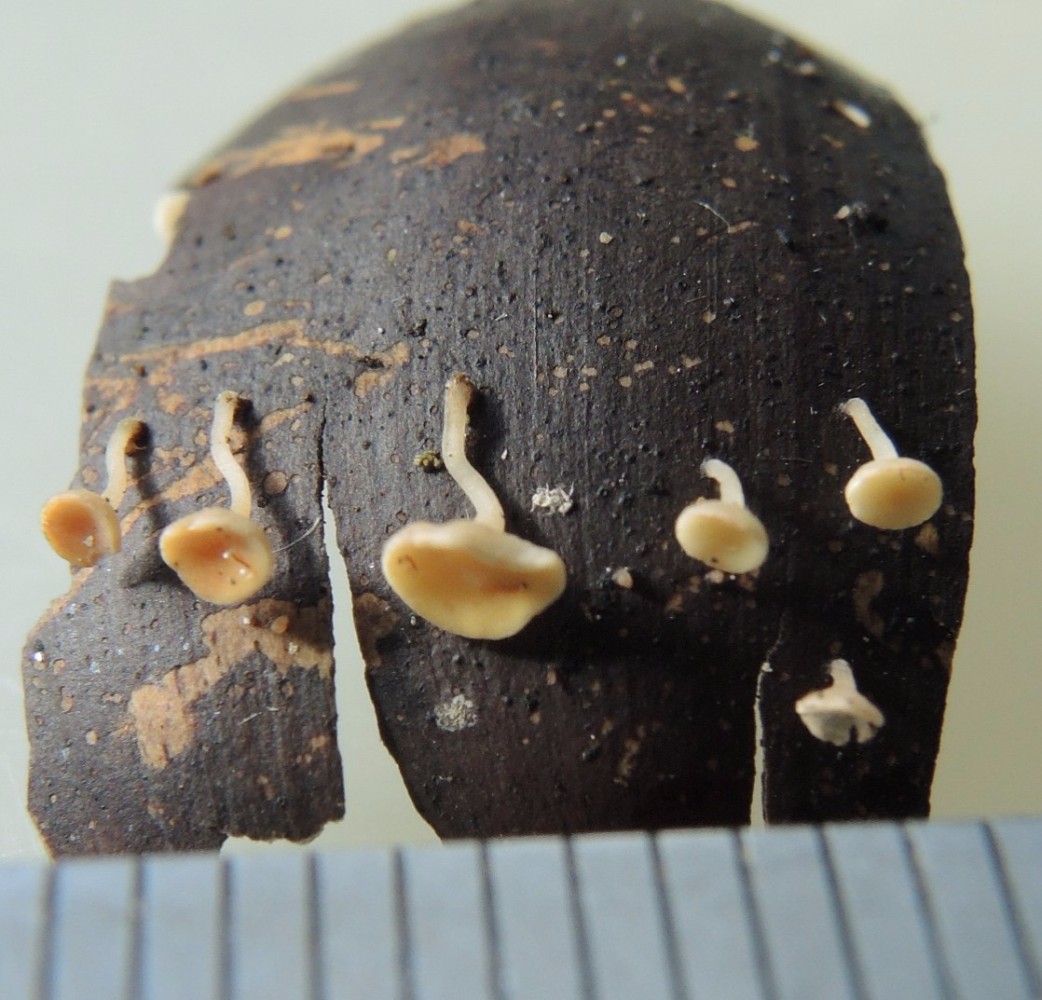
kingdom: Fungi
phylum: Ascomycota
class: Leotiomycetes
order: Helotiales
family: Helotiaceae
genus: Hymenoscyphus
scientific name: Hymenoscyphus fructigenus
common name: frugt-stilkskive
